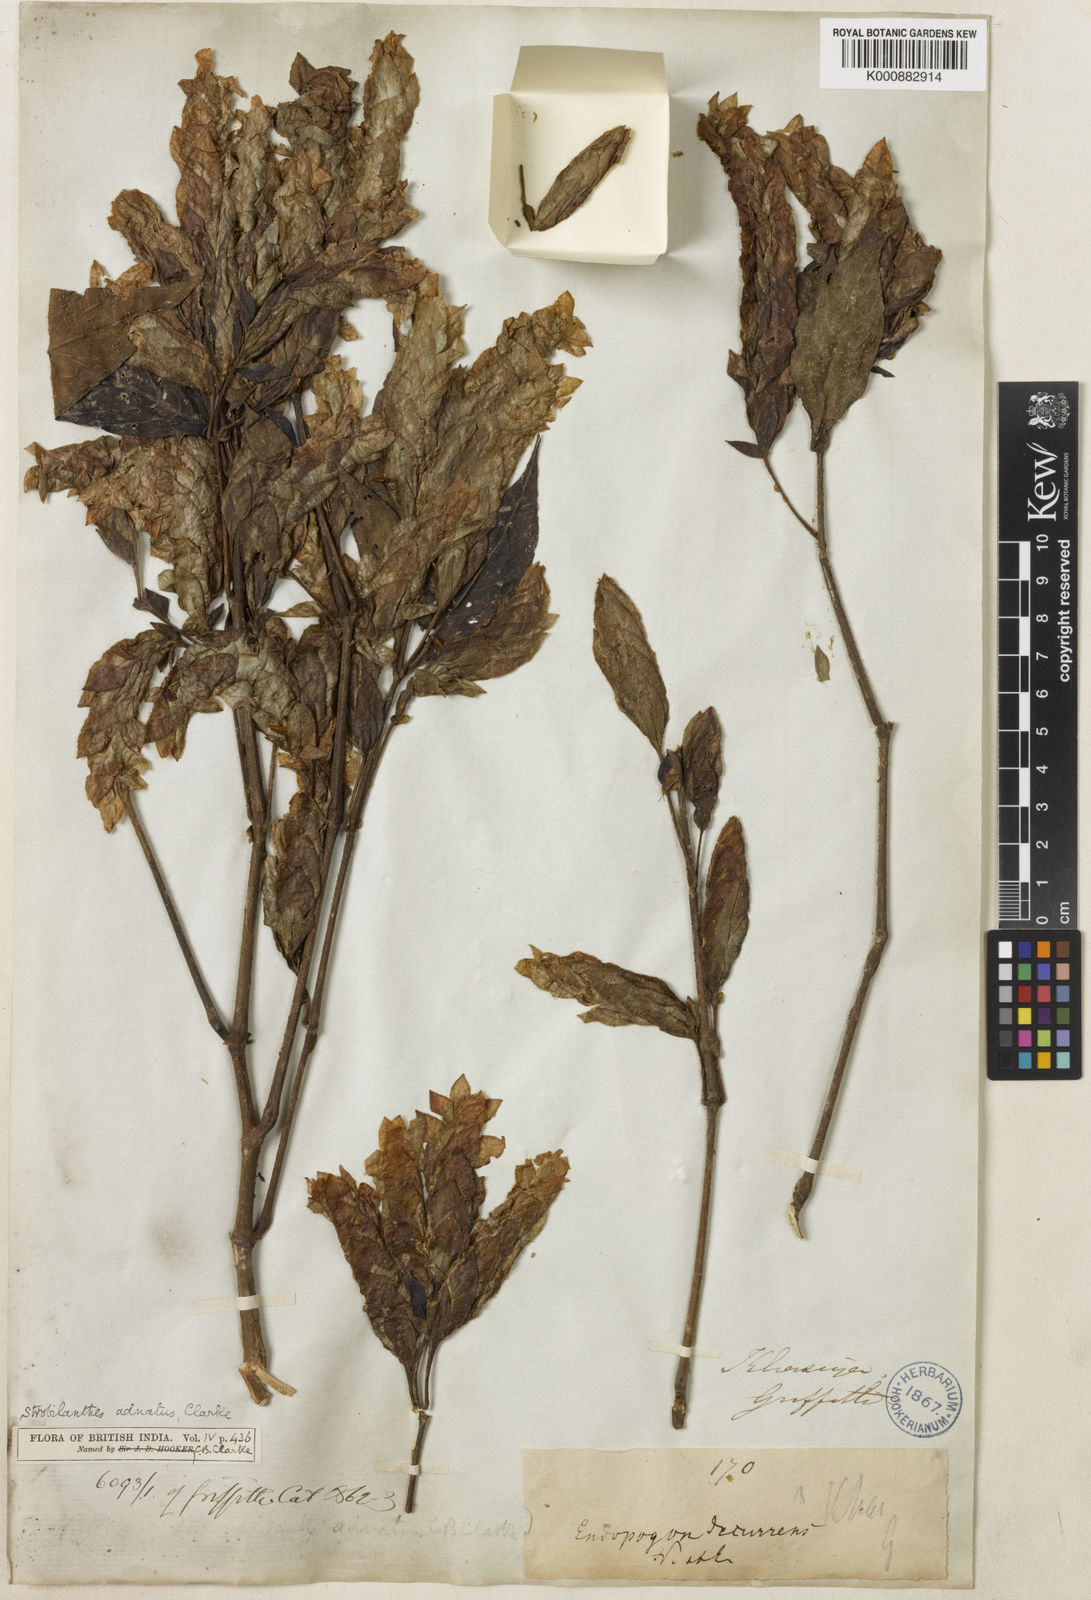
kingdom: Plantae
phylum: Tracheophyta
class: Magnoliopsida
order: Lamiales
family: Acanthaceae
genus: Strobilanthes
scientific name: Strobilanthes adnata
